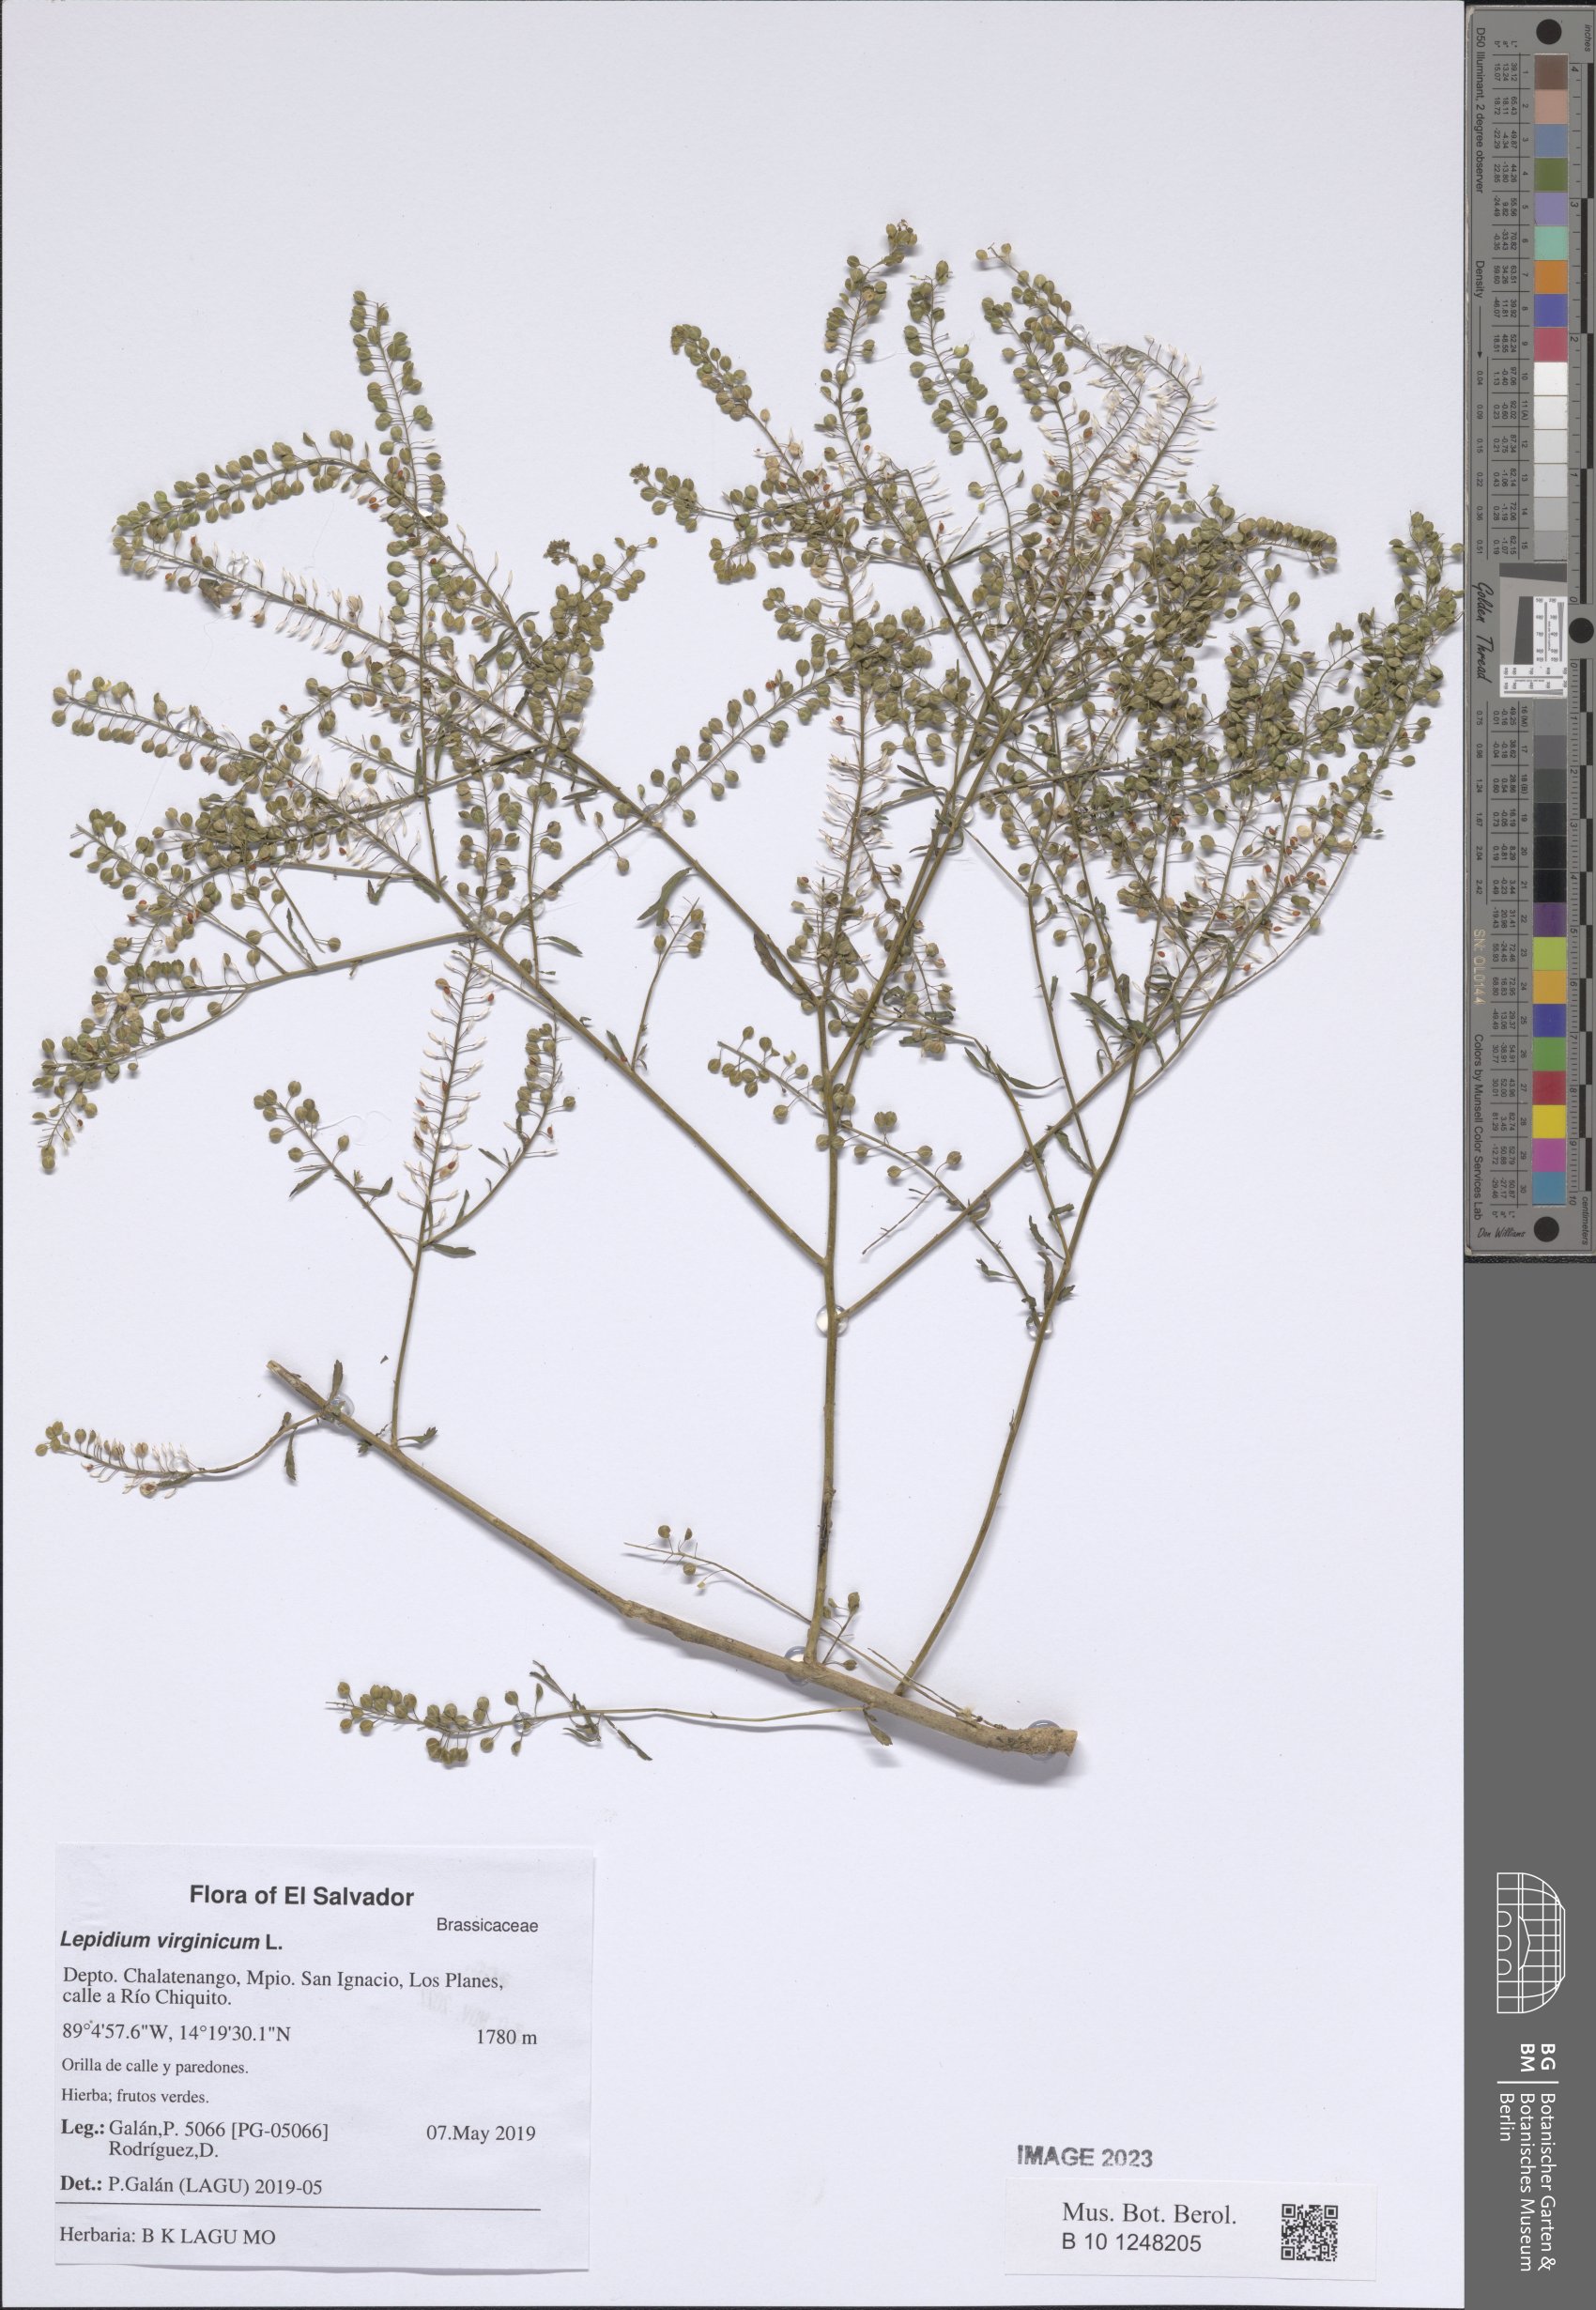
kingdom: Plantae
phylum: Tracheophyta
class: Magnoliopsida
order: Brassicales
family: Brassicaceae
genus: Lepidium
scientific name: Lepidium virginicum
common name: Least pepperwort
